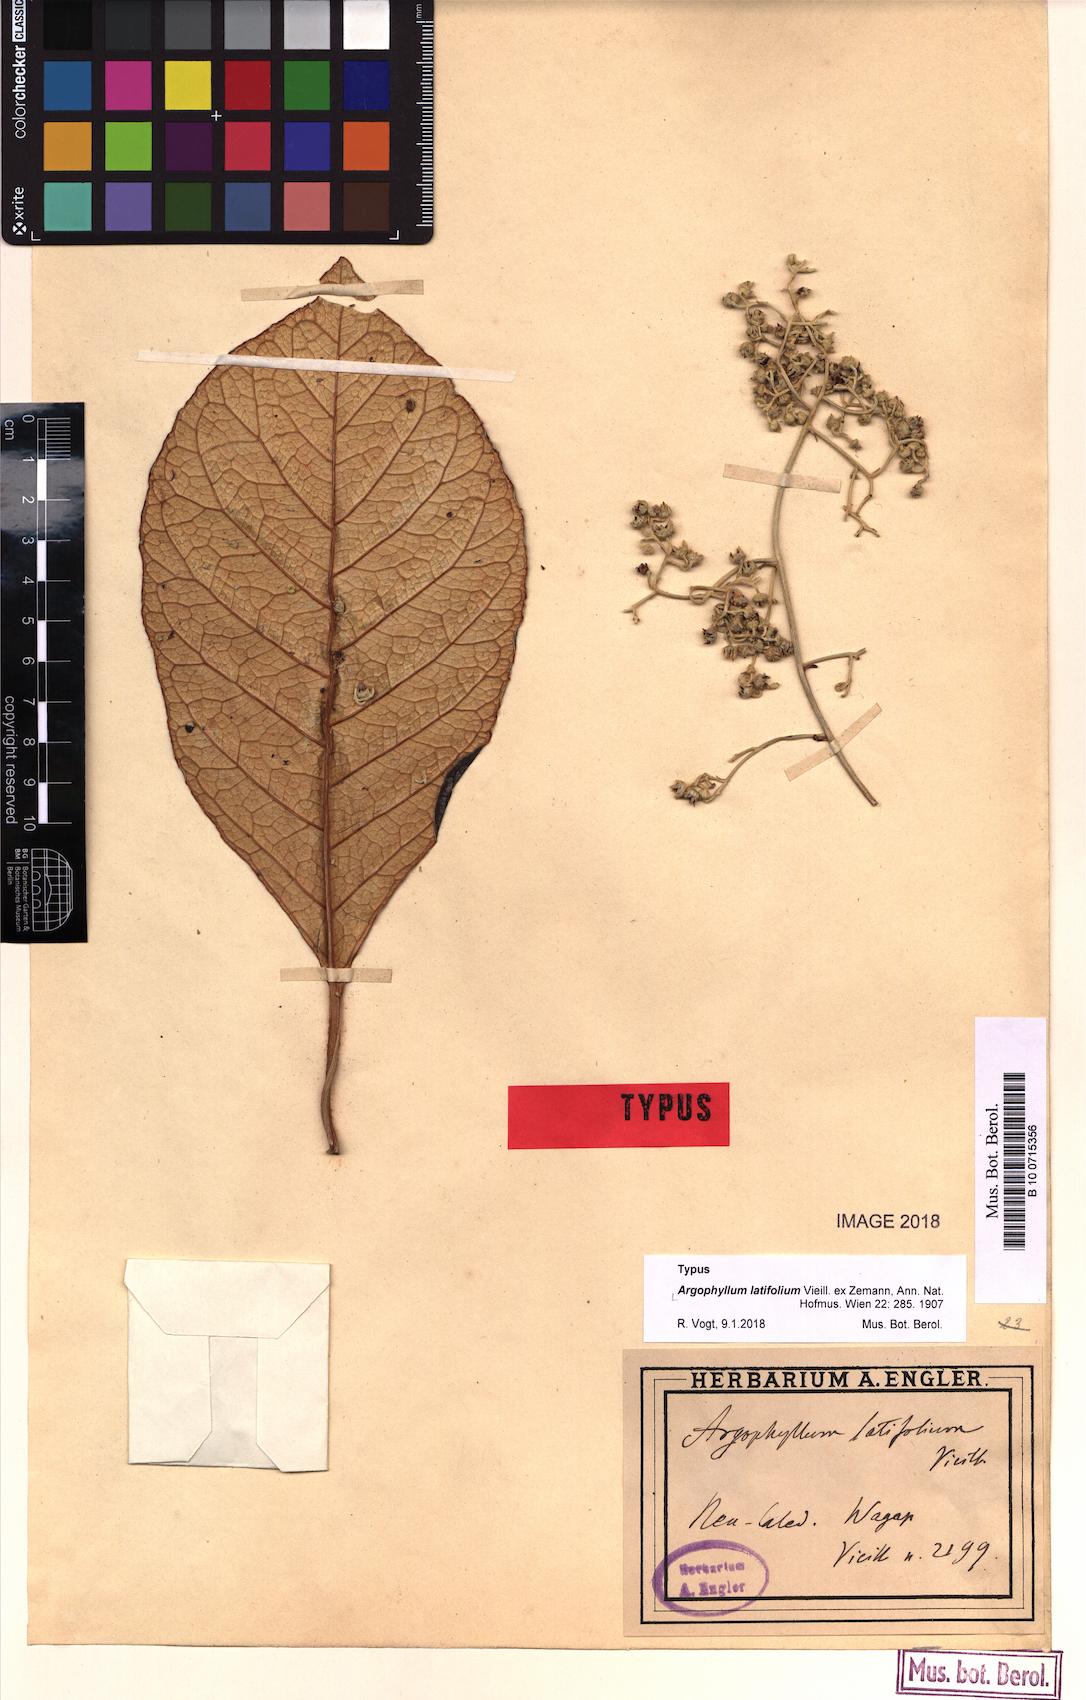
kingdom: Plantae
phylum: Tracheophyta
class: Magnoliopsida
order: Asterales
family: Argophyllaceae
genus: Argophyllum
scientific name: Argophyllum grunowii
